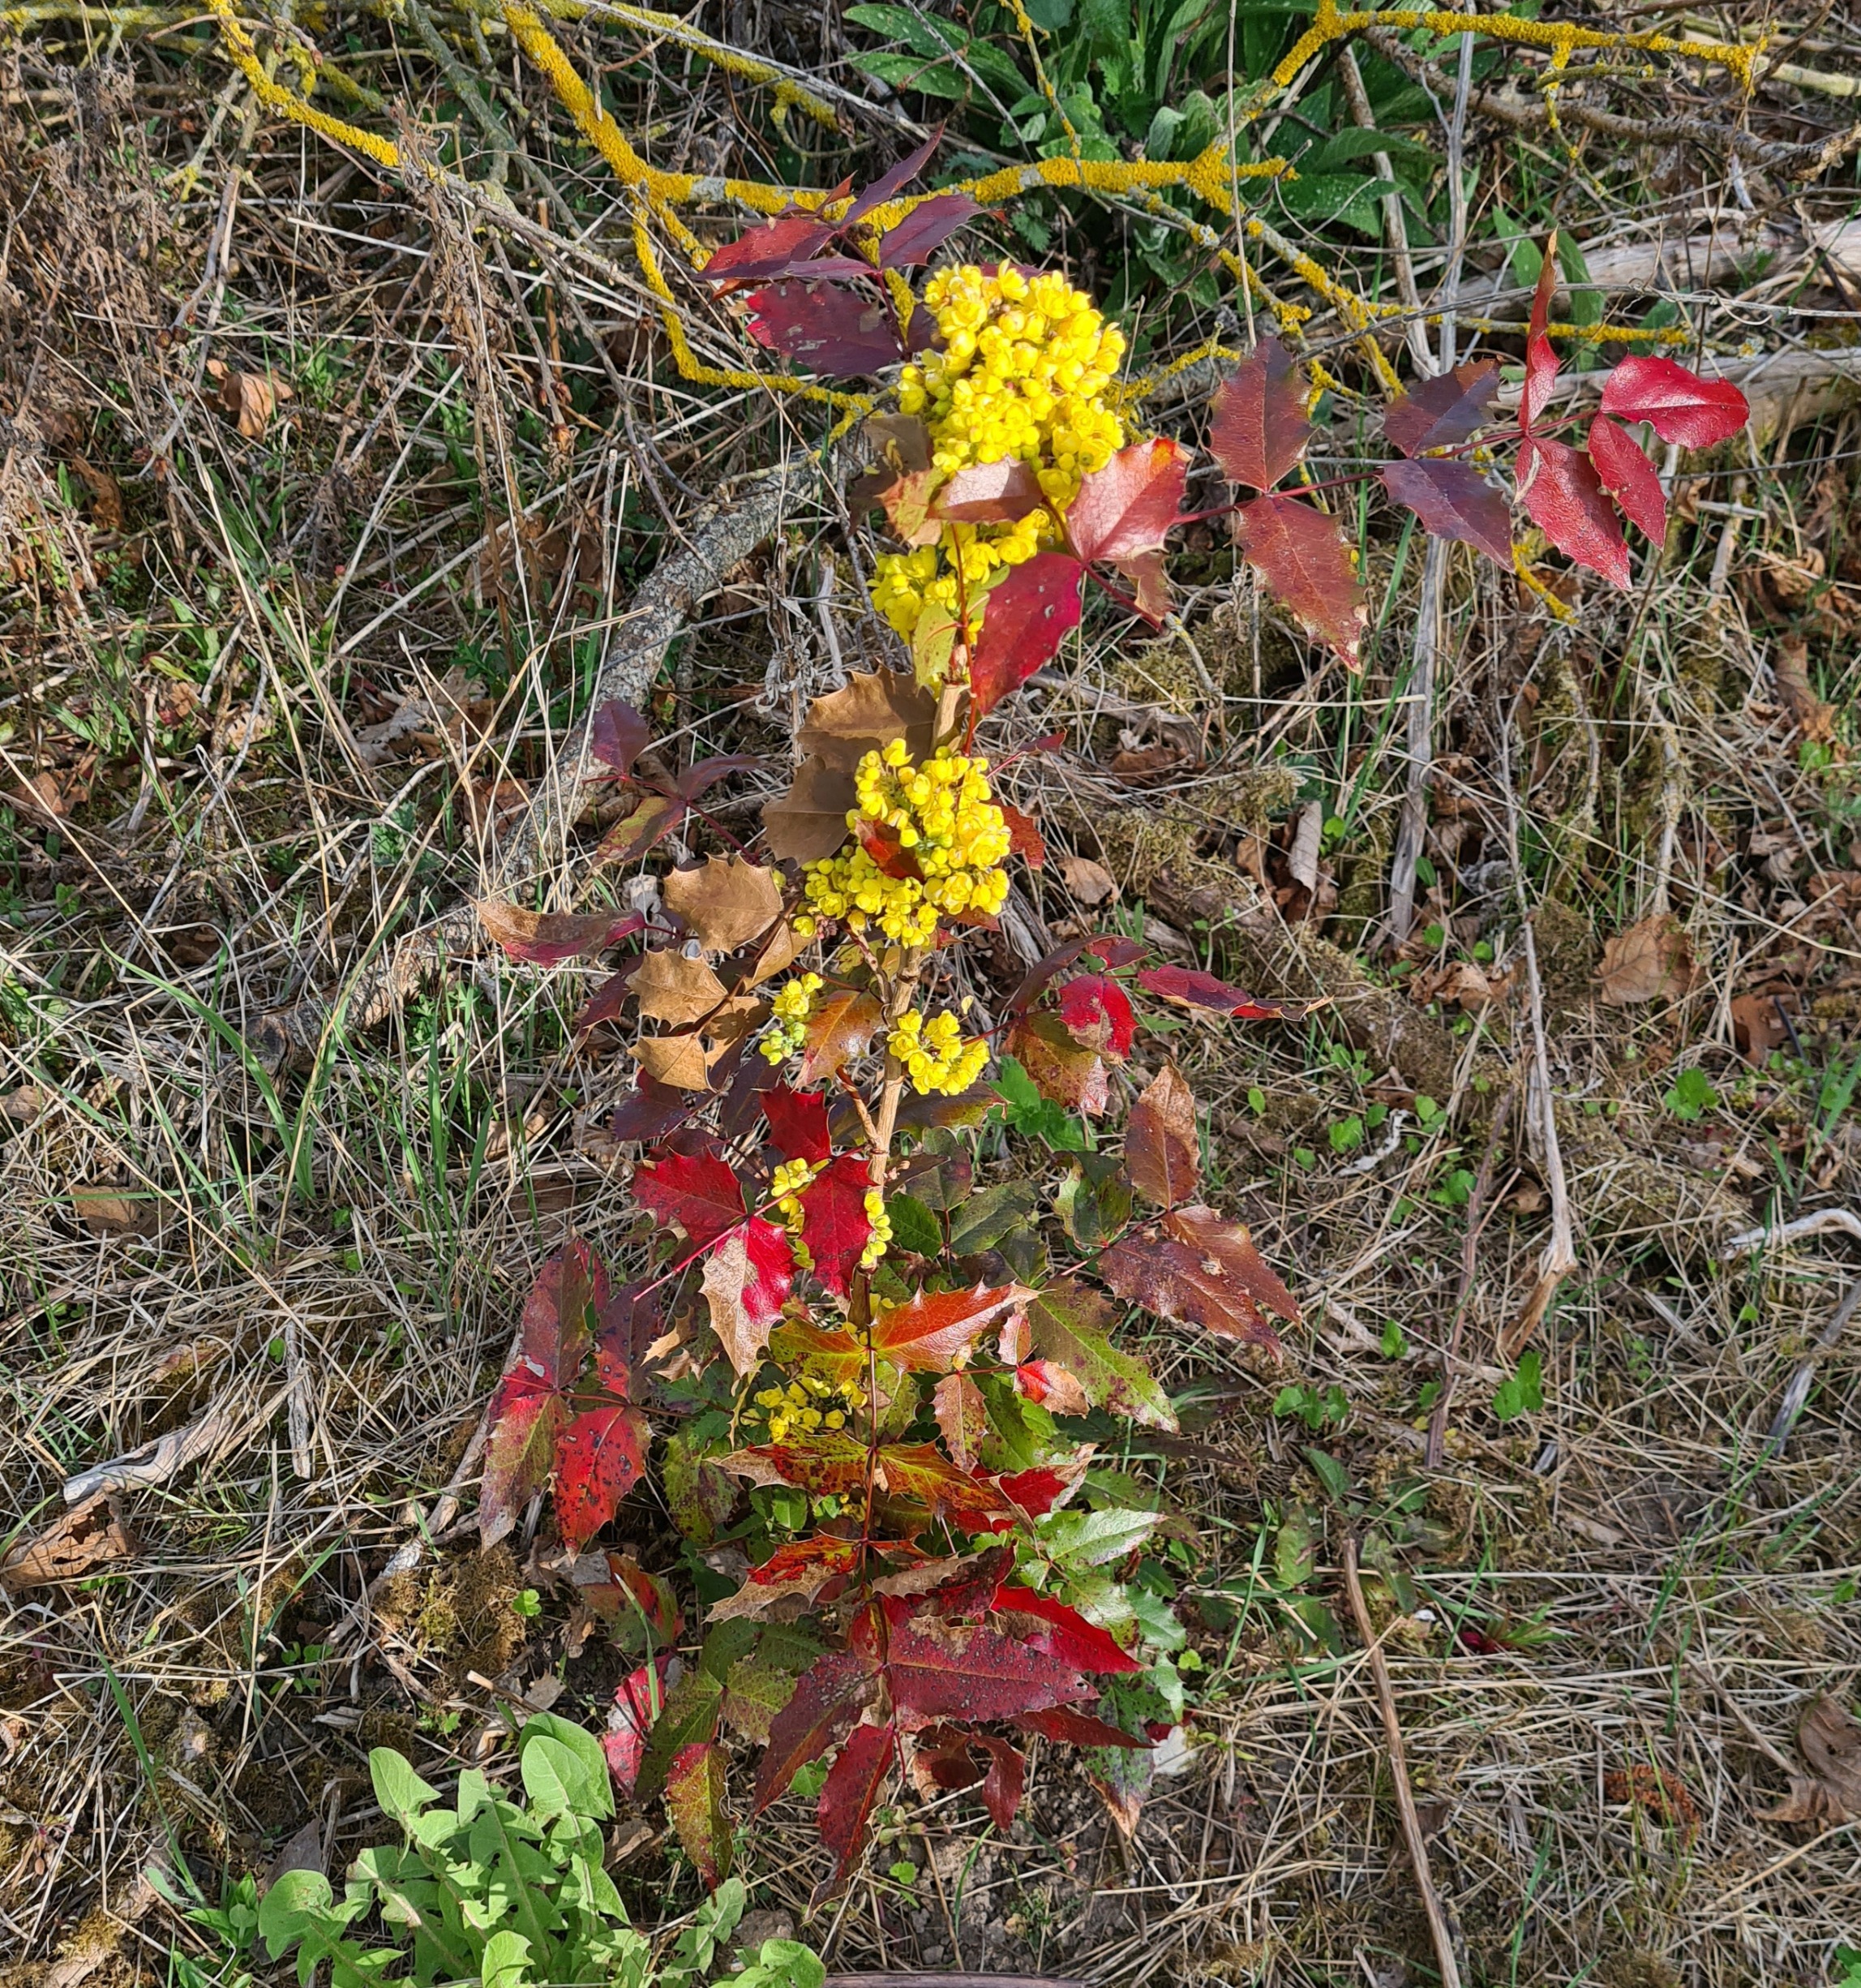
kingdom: Plantae
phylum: Tracheophyta
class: Magnoliopsida
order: Ranunculales
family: Berberidaceae
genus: Mahonia
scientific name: Mahonia aquifolium
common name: Almindelig mahonie
